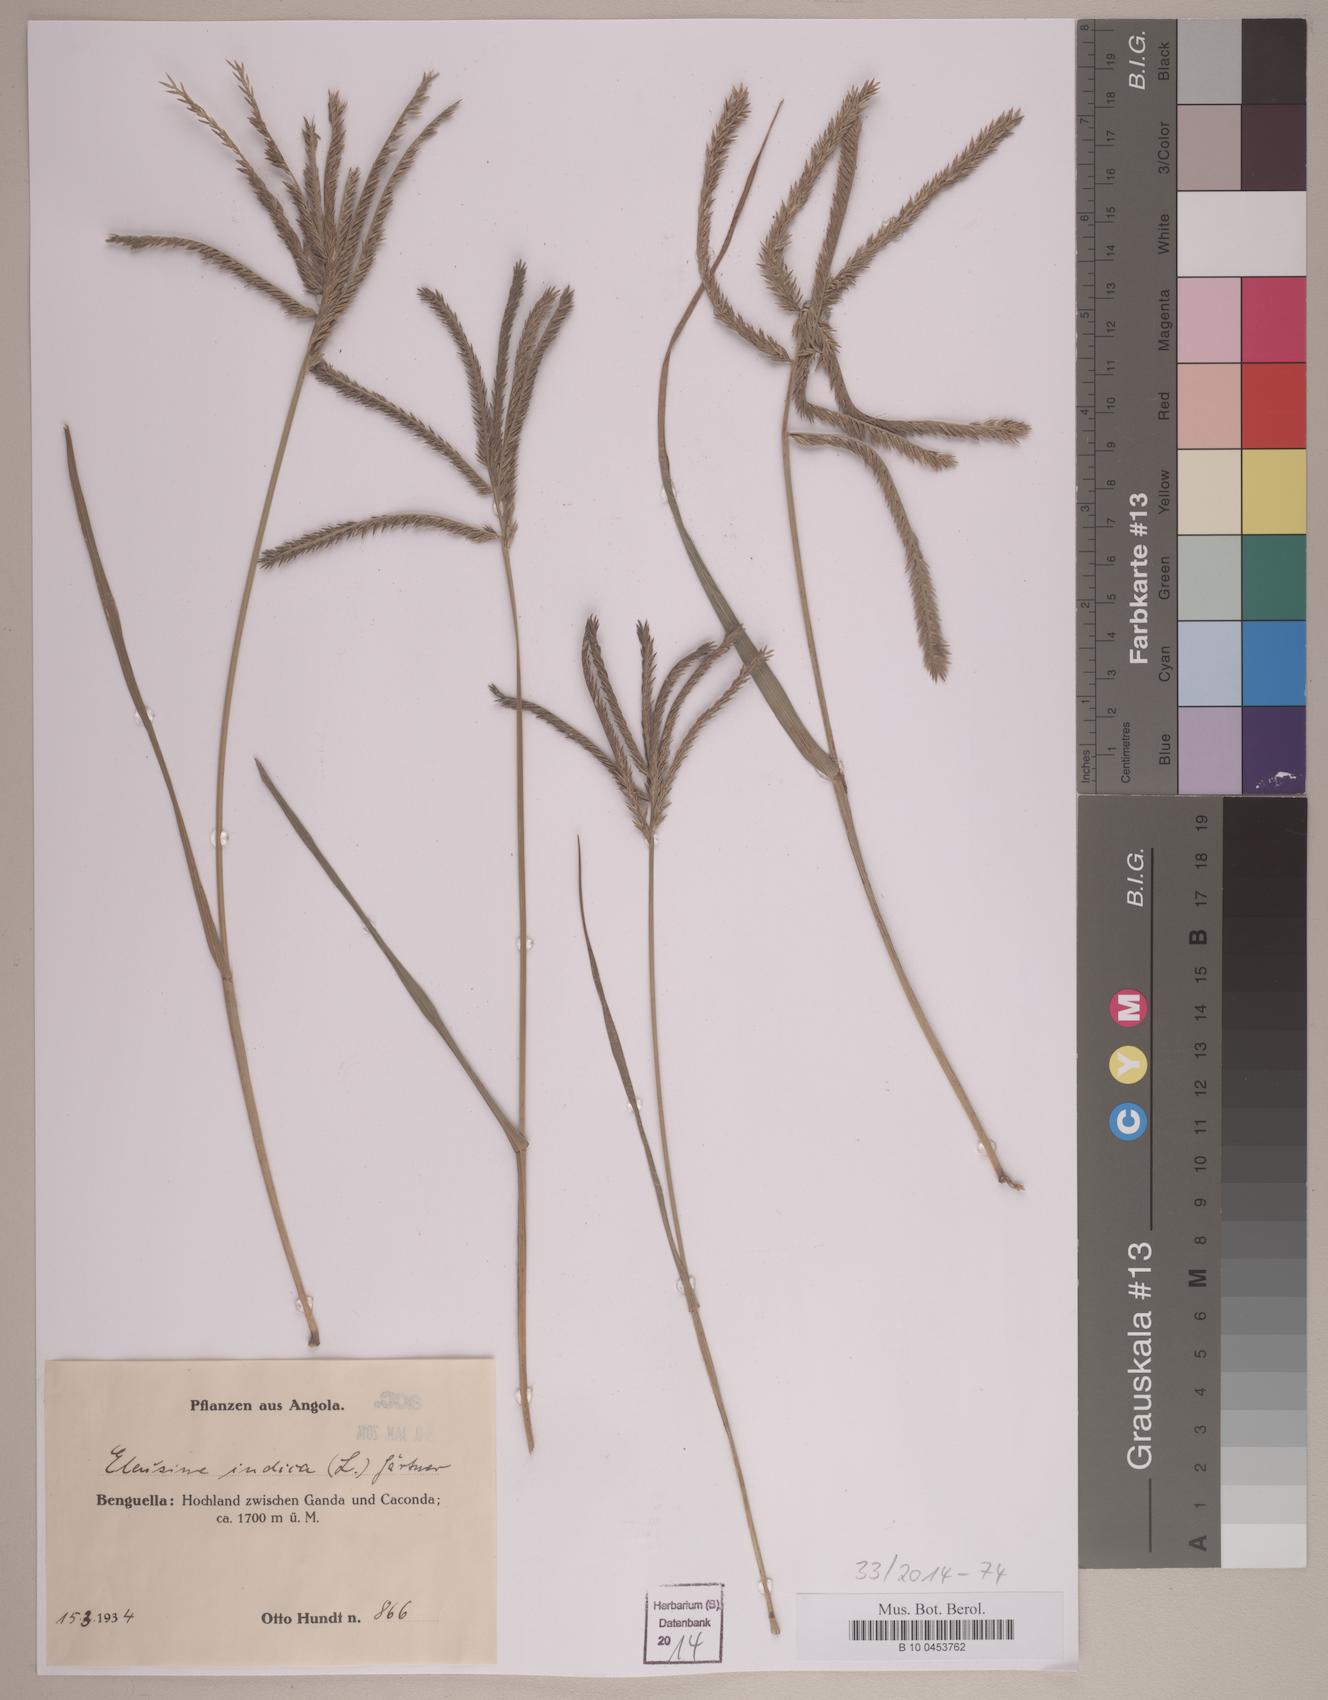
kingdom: Plantae
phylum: Tracheophyta
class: Liliopsida
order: Poales
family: Poaceae
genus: Eleusine
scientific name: Eleusine indica
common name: Yard-grass
